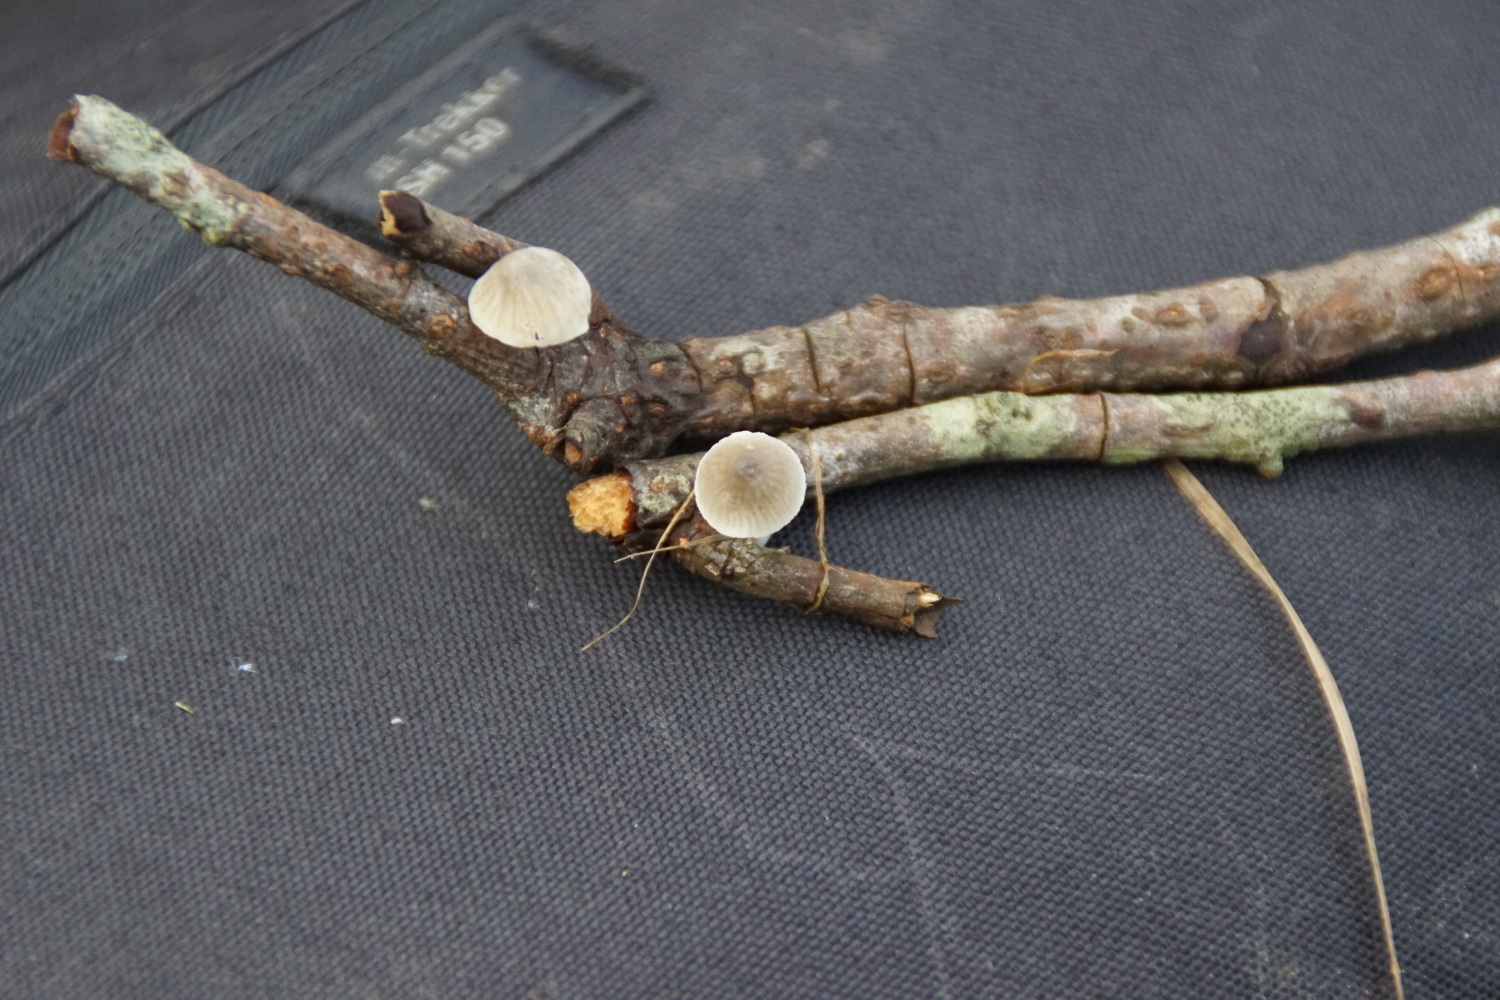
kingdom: Fungi
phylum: Basidiomycota
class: Agaricomycetes
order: Agaricales
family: Mycenaceae
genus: Mycena
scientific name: Mycena arcangeliana
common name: oliven-huesvamp
